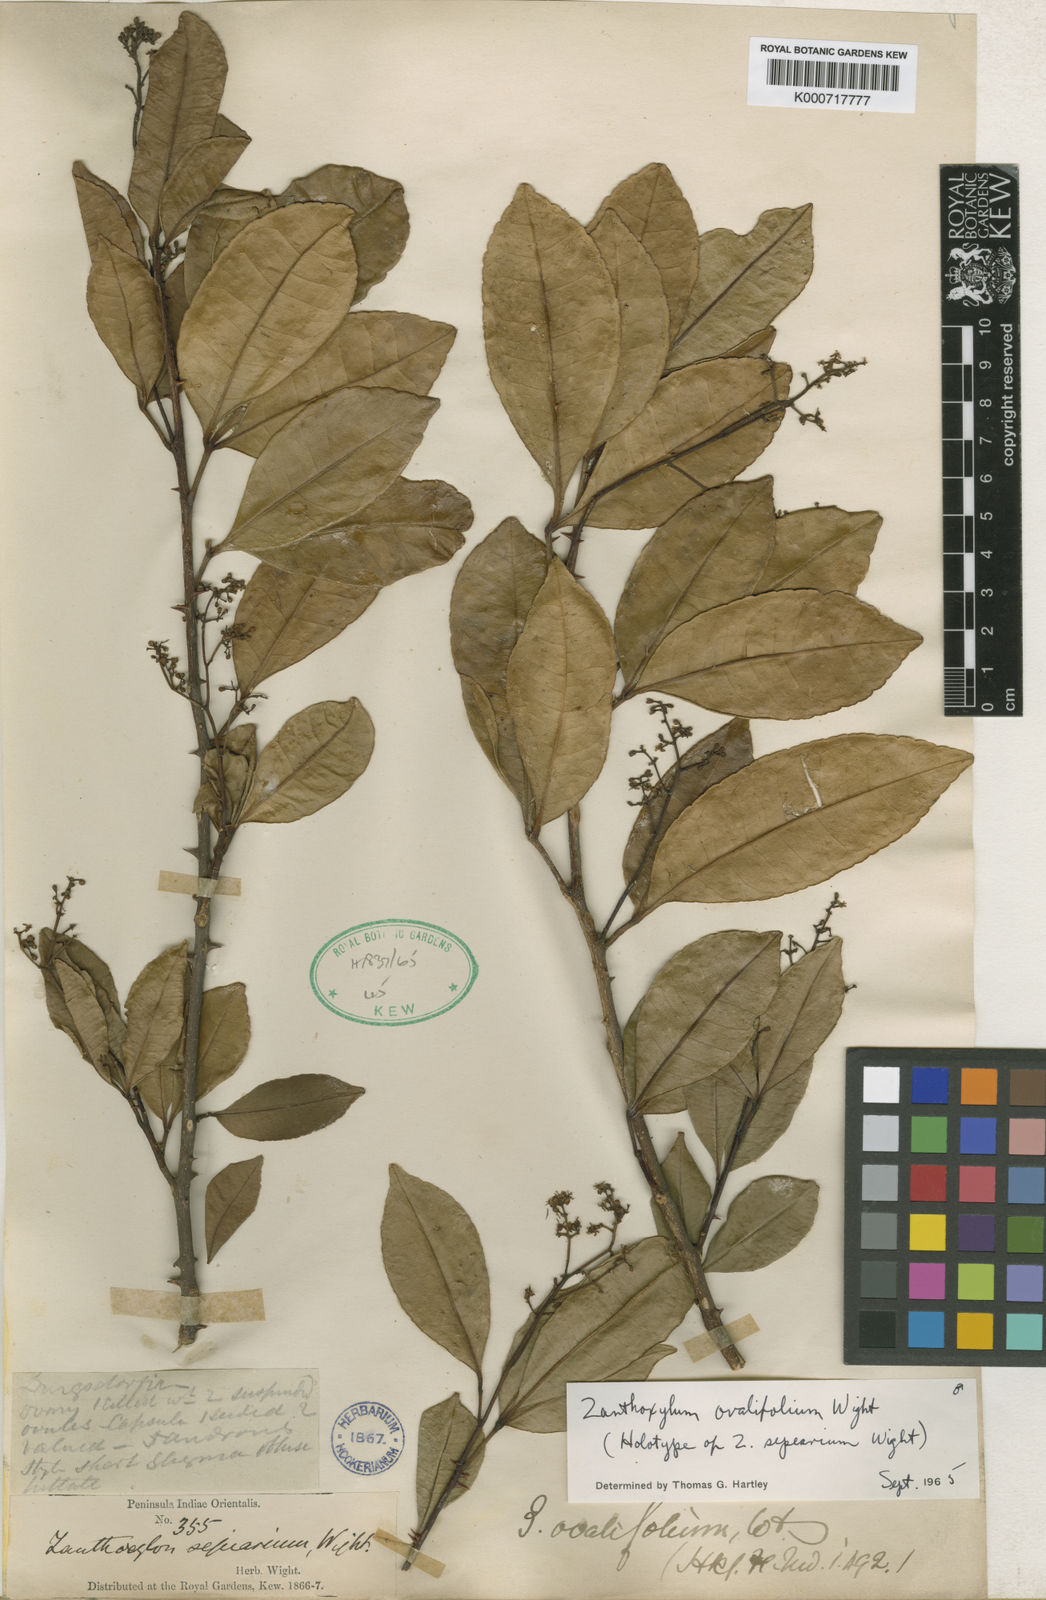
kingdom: Plantae
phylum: Tracheophyta
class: Magnoliopsida
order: Sapindales
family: Rutaceae
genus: Zanthoxylum
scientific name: Zanthoxylum ovalifolium
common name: Thorny yellowwood
